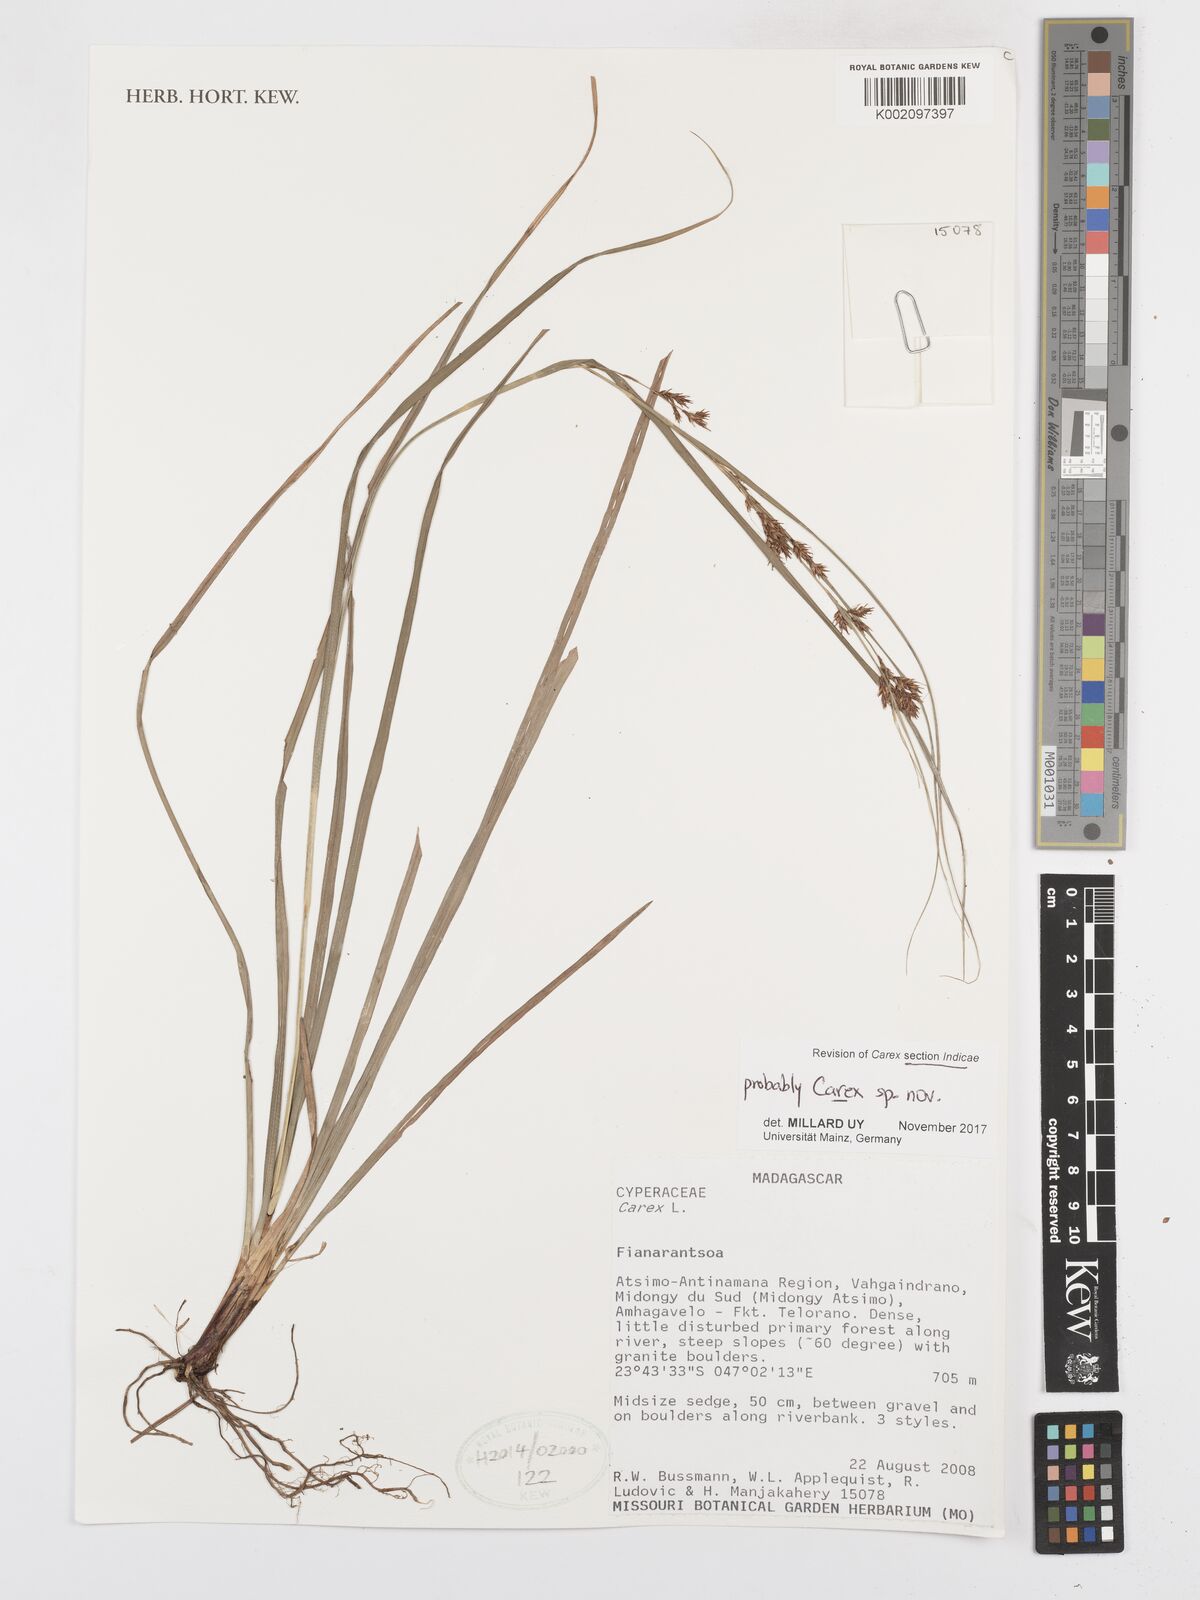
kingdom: Plantae
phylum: Tracheophyta
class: Liliopsida
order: Poales
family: Cyperaceae
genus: Carex
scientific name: Carex
